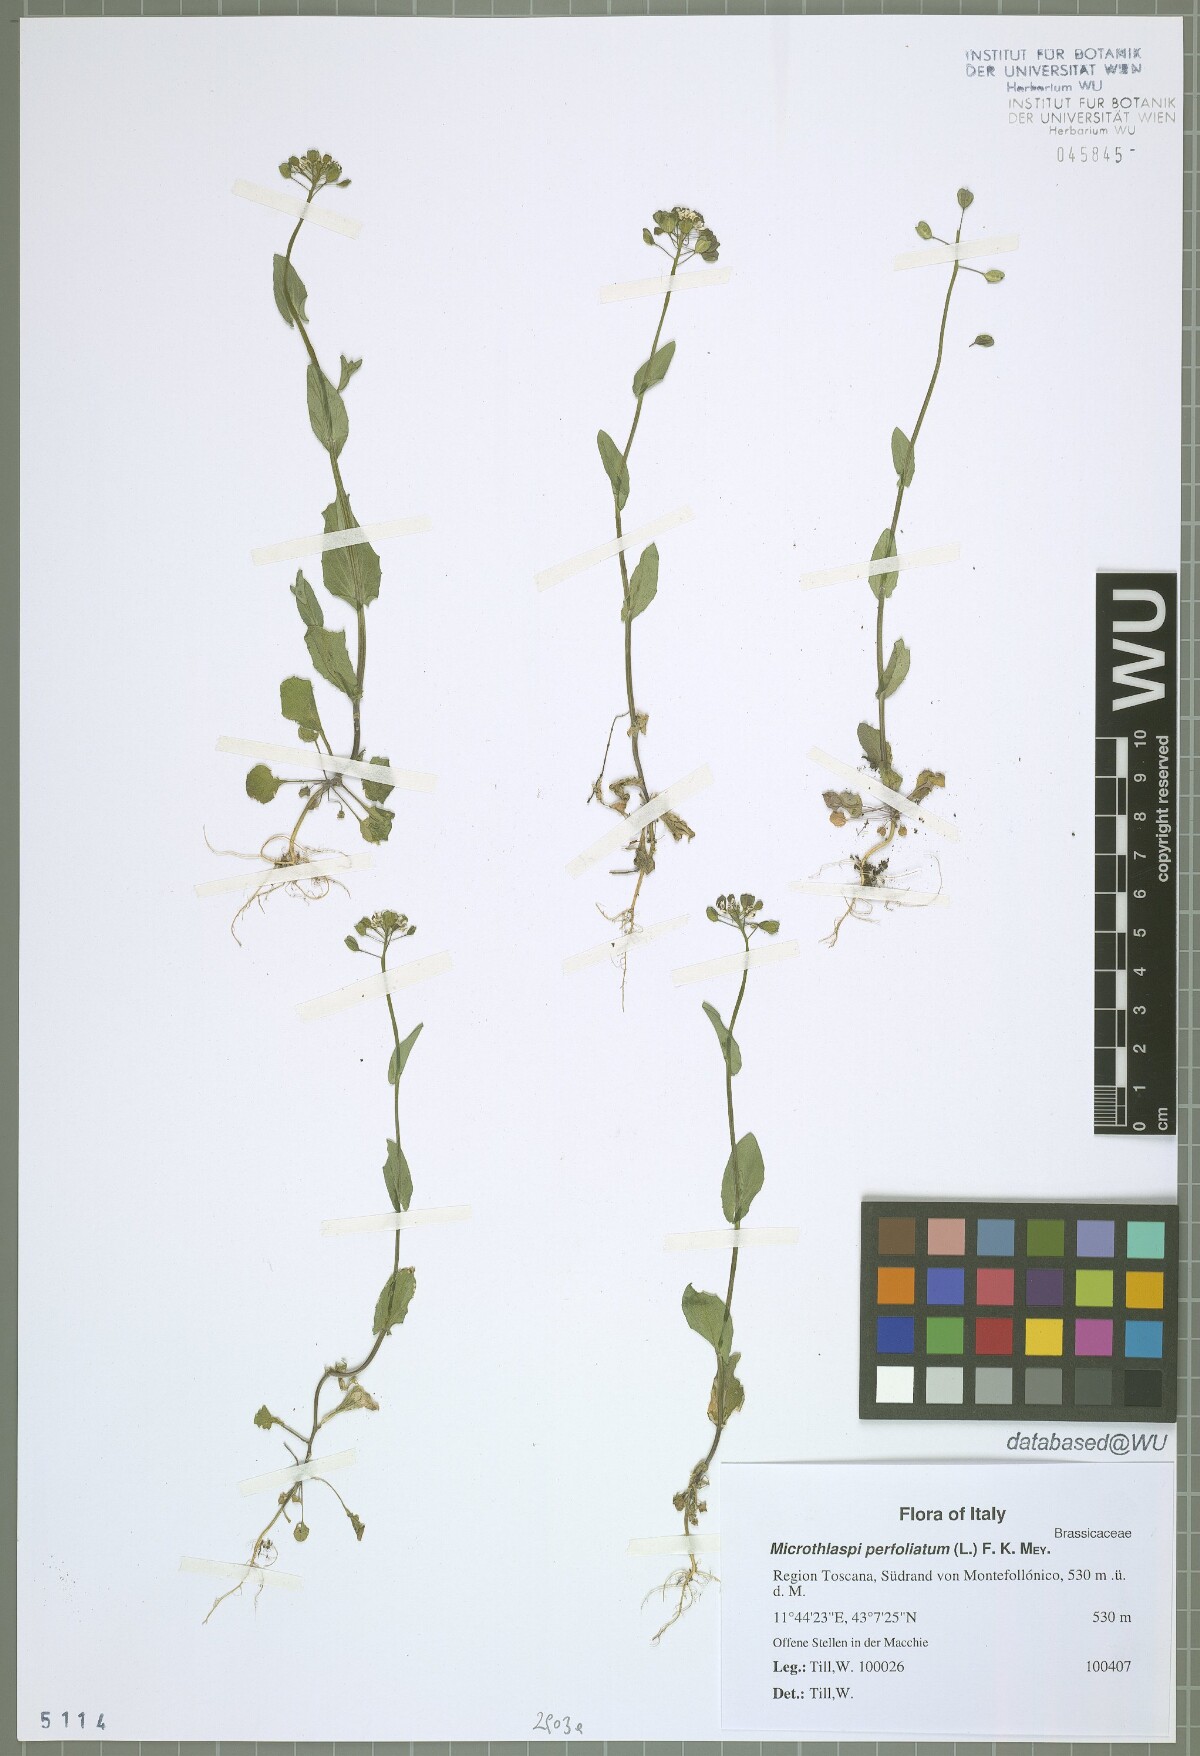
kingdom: Plantae
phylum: Tracheophyta
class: Magnoliopsida
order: Brassicales
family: Brassicaceae
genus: Noccaea
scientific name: Noccaea perfoliata
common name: Perfoliate pennycress
